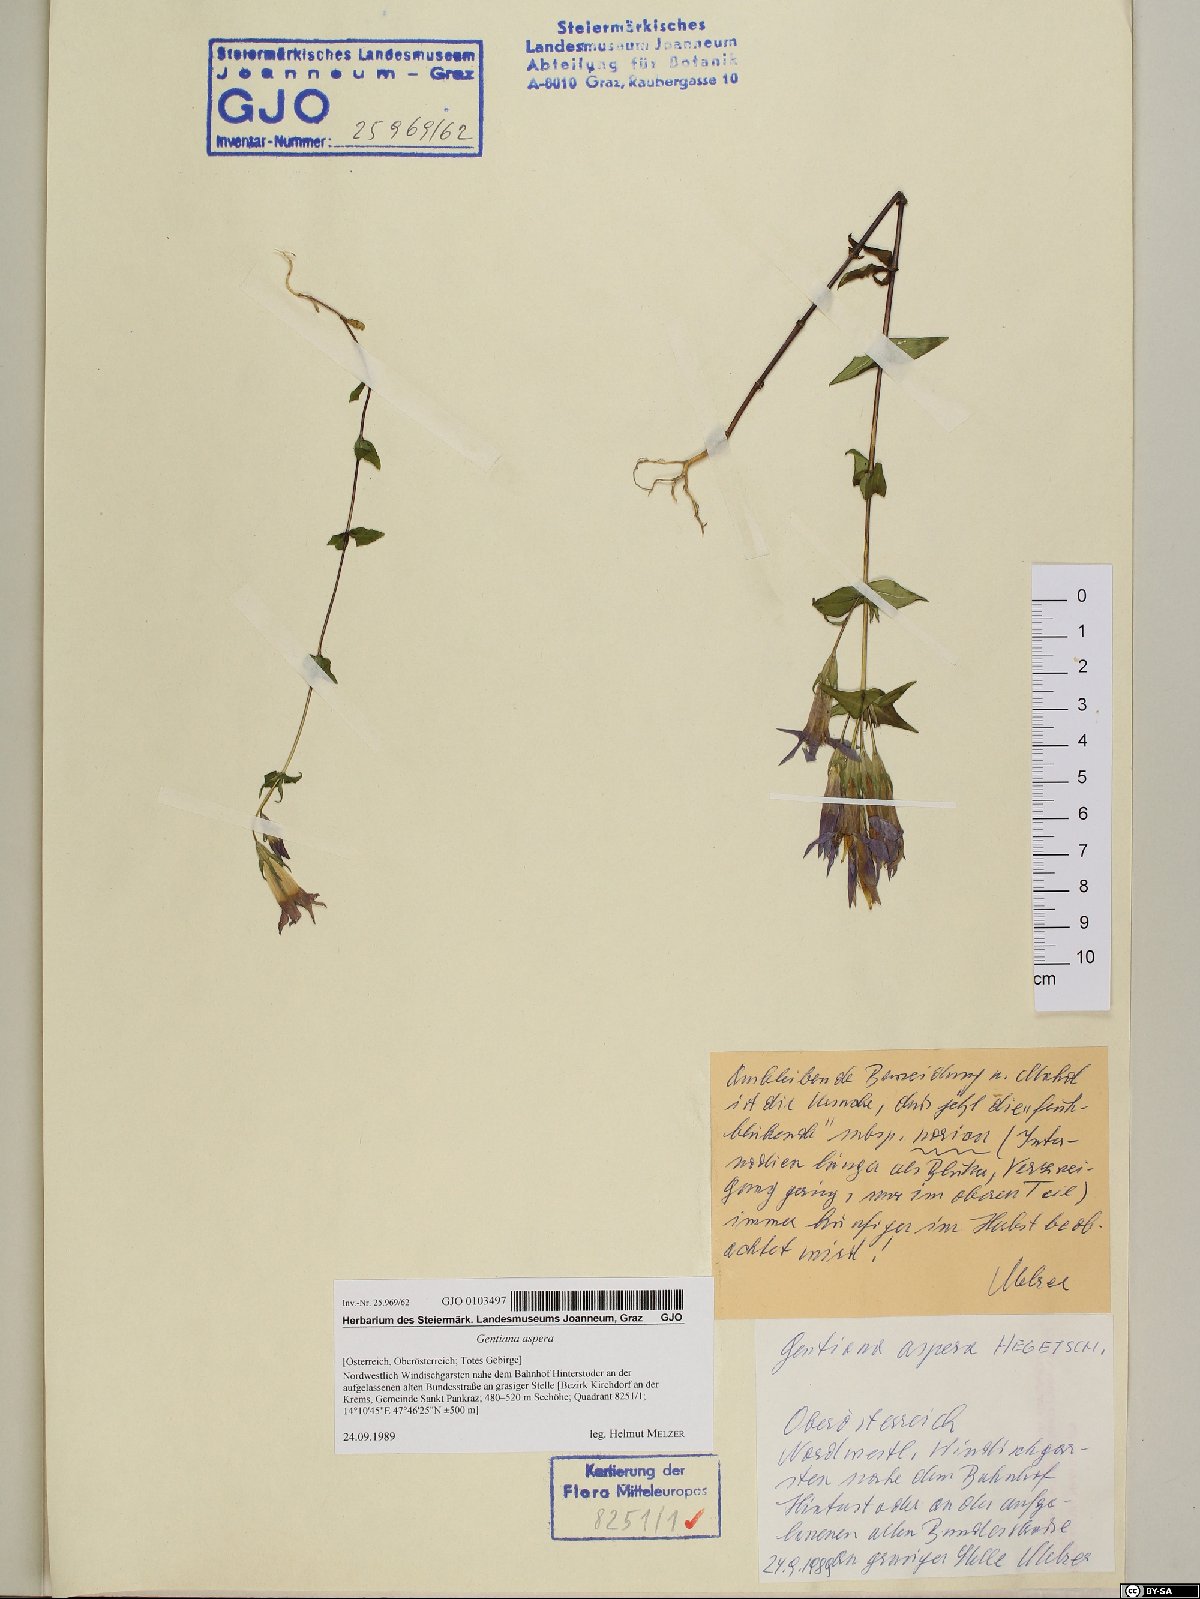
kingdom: Plantae
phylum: Tracheophyta
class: Magnoliopsida
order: Gentianales
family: Gentianaceae
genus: Gentianella
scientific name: Gentianella obtusifolia
